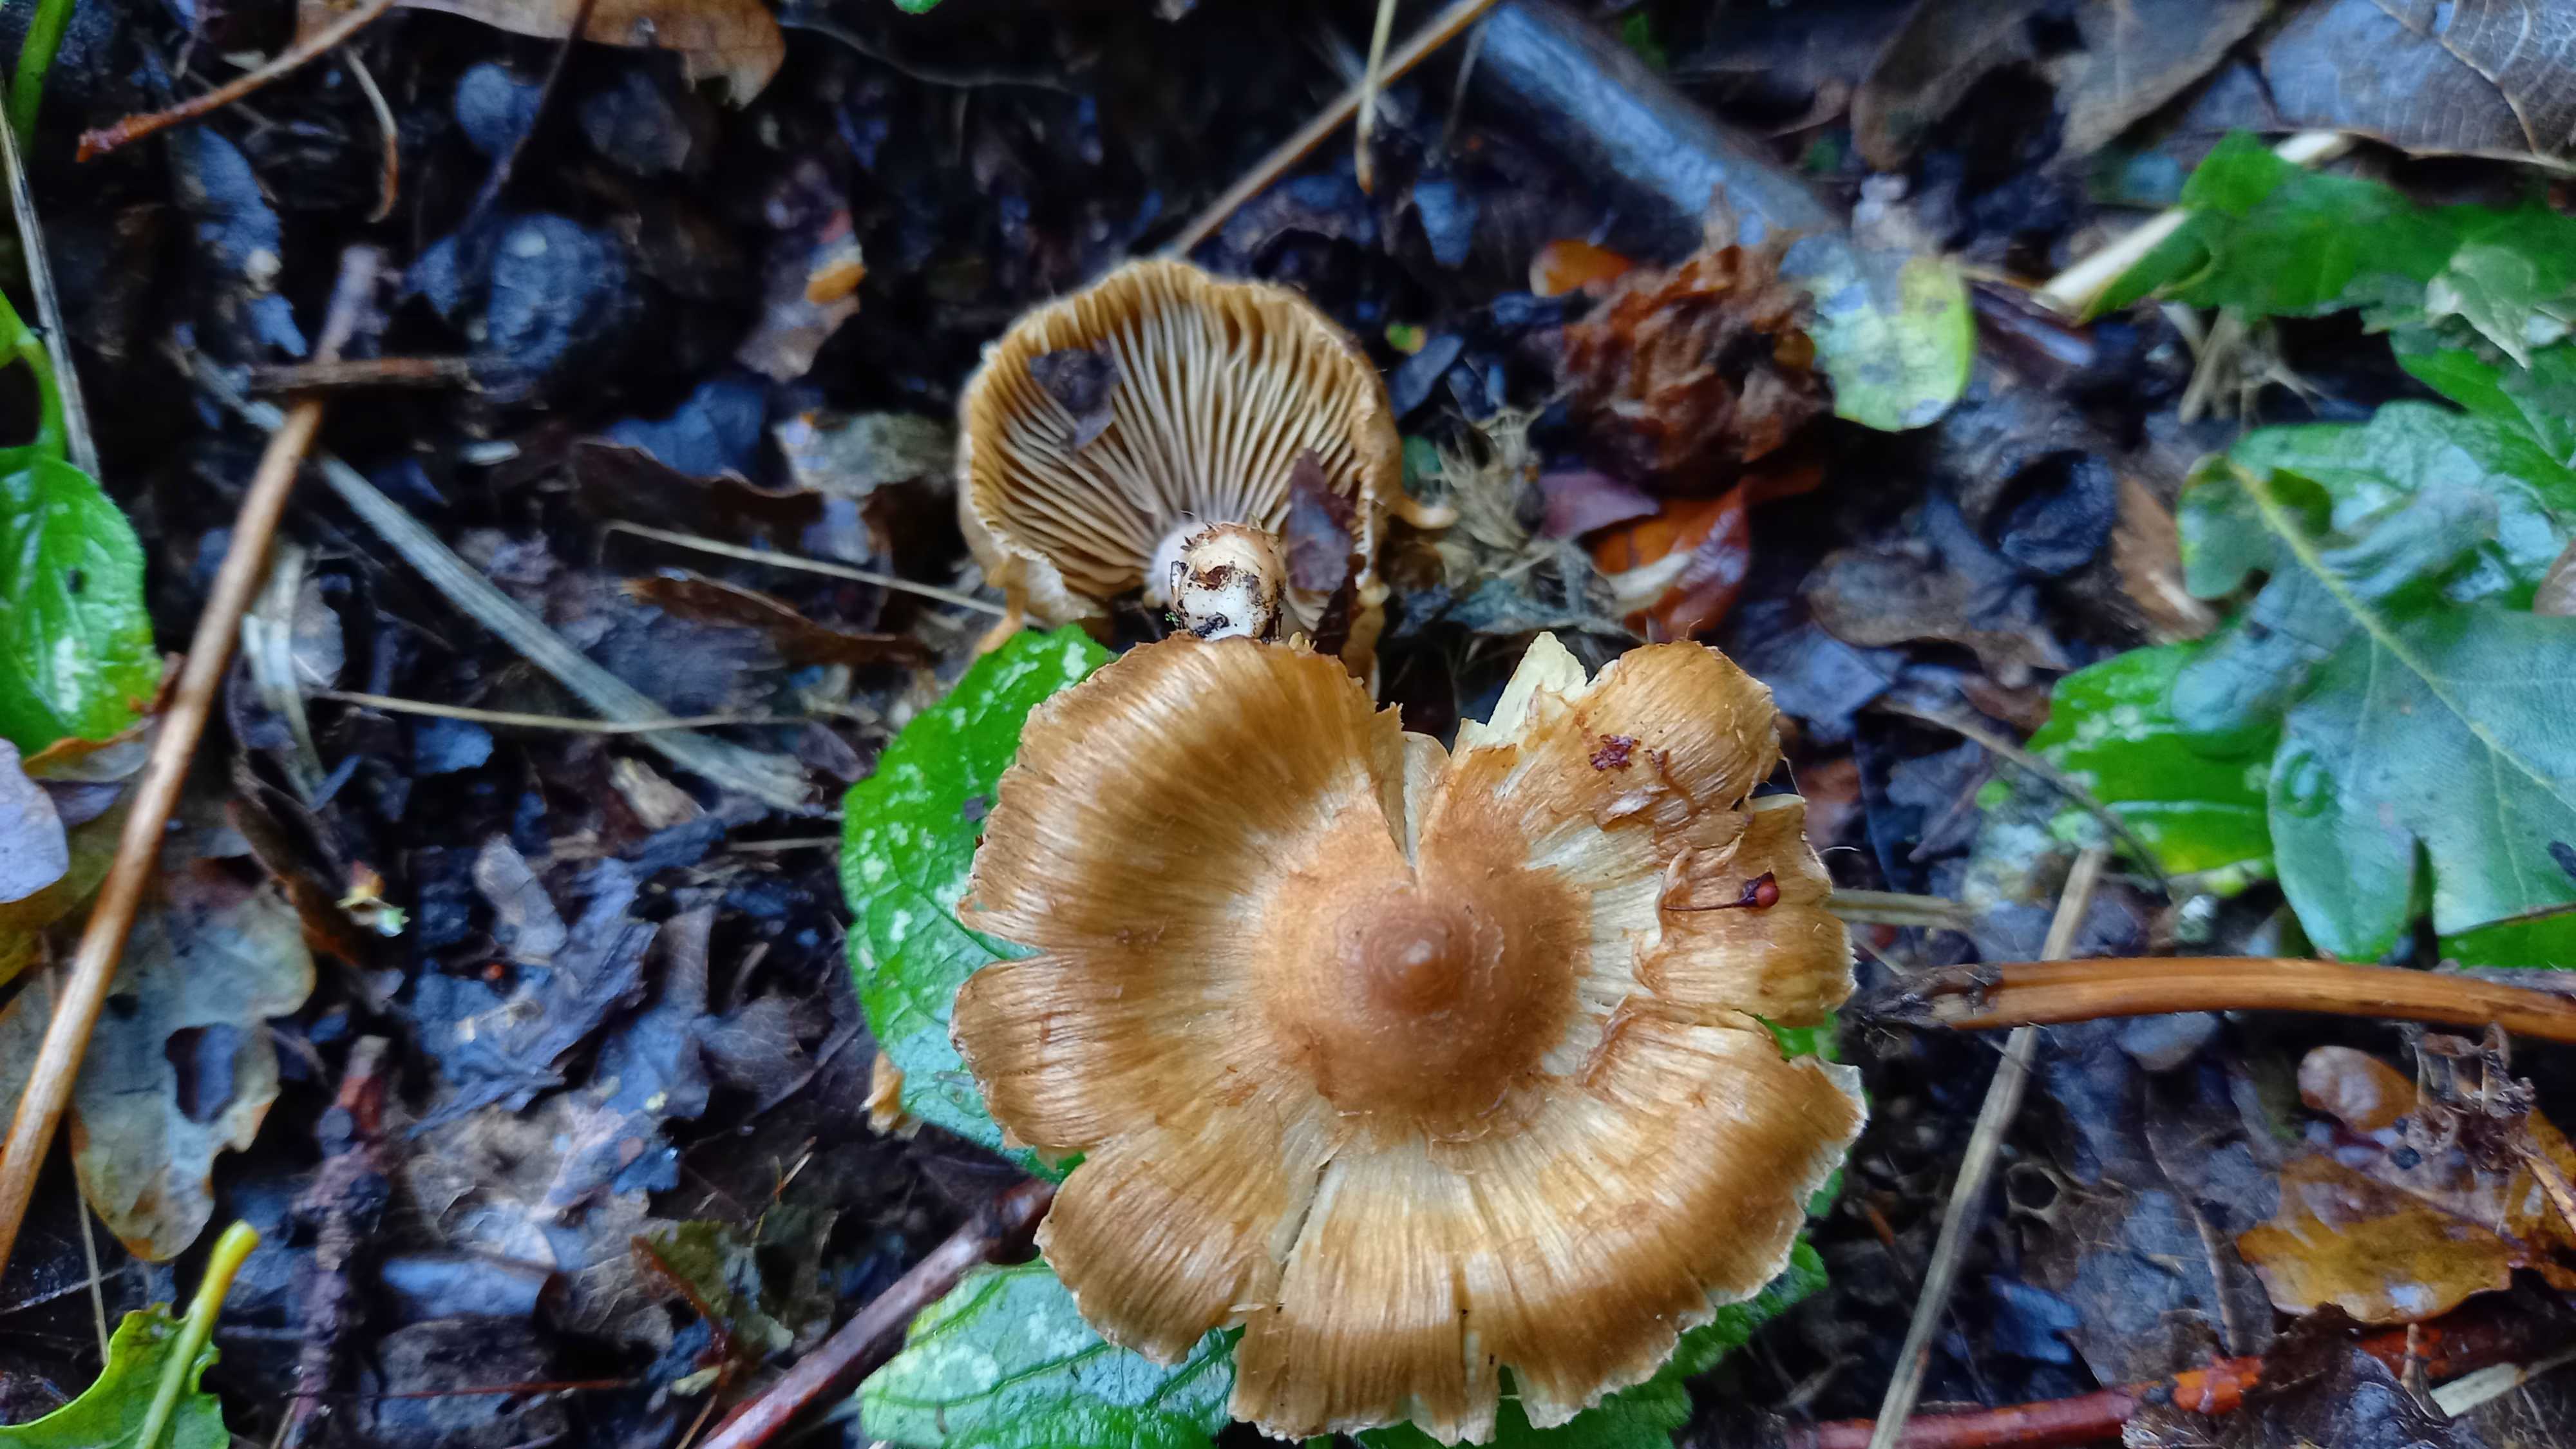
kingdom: Fungi
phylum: Basidiomycota
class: Agaricomycetes
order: Agaricales
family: Inocybaceae
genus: Inocybe
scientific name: Inocybe
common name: trævlhat
